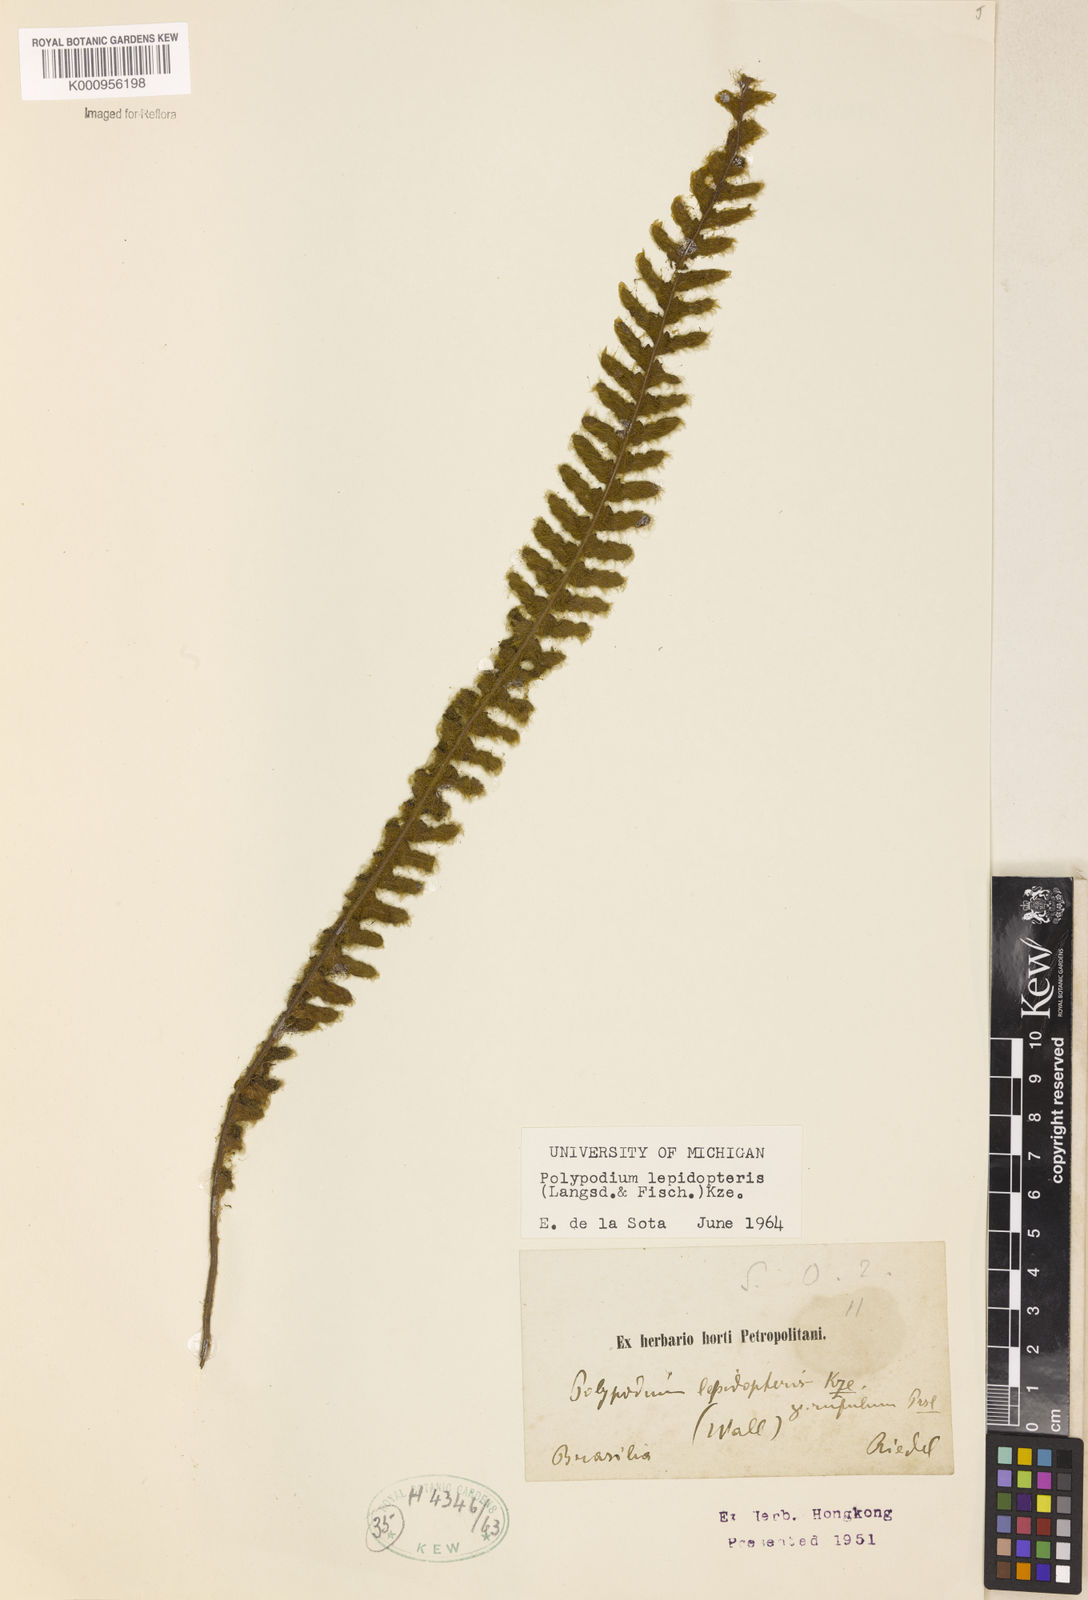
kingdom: Plantae
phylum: Tracheophyta
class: Polypodiopsida
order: Polypodiales
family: Polypodiaceae
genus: Pleopeltis
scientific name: Pleopeltis lepidopteris
